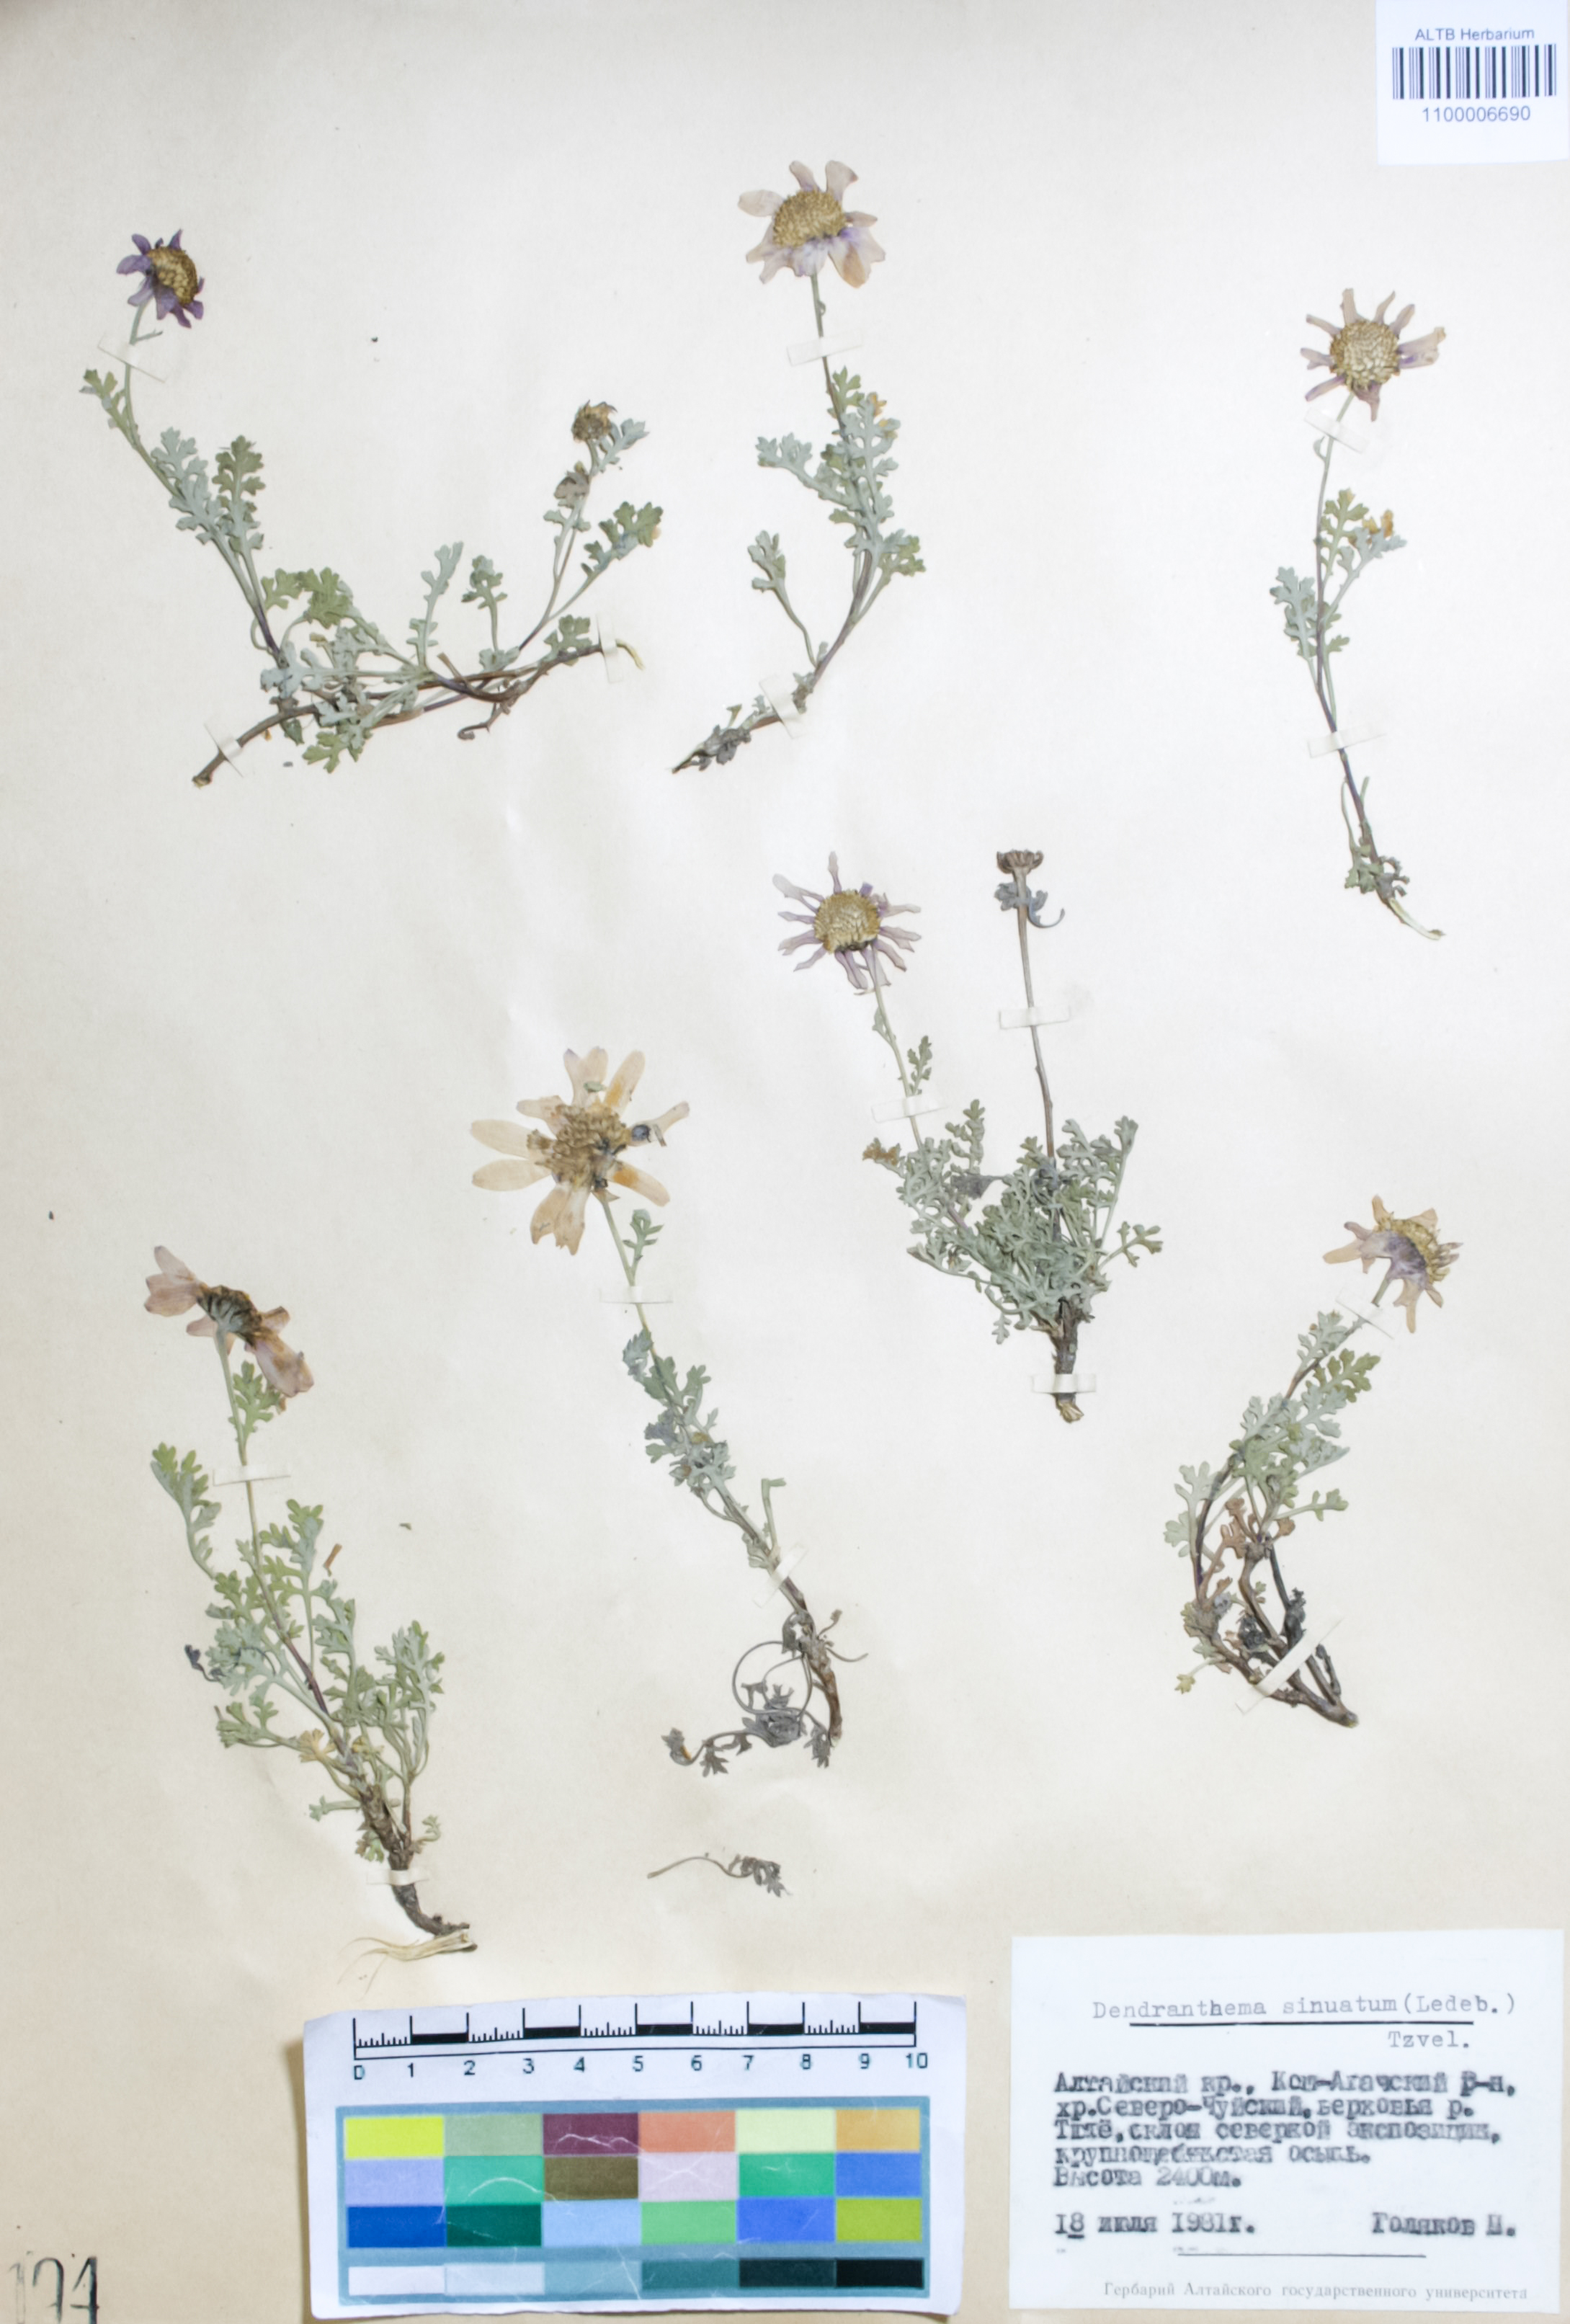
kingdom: Plantae
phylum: Tracheophyta
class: Magnoliopsida
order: Asterales
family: Asteraceae
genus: Chrysanthemum
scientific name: Chrysanthemum sinuatum
